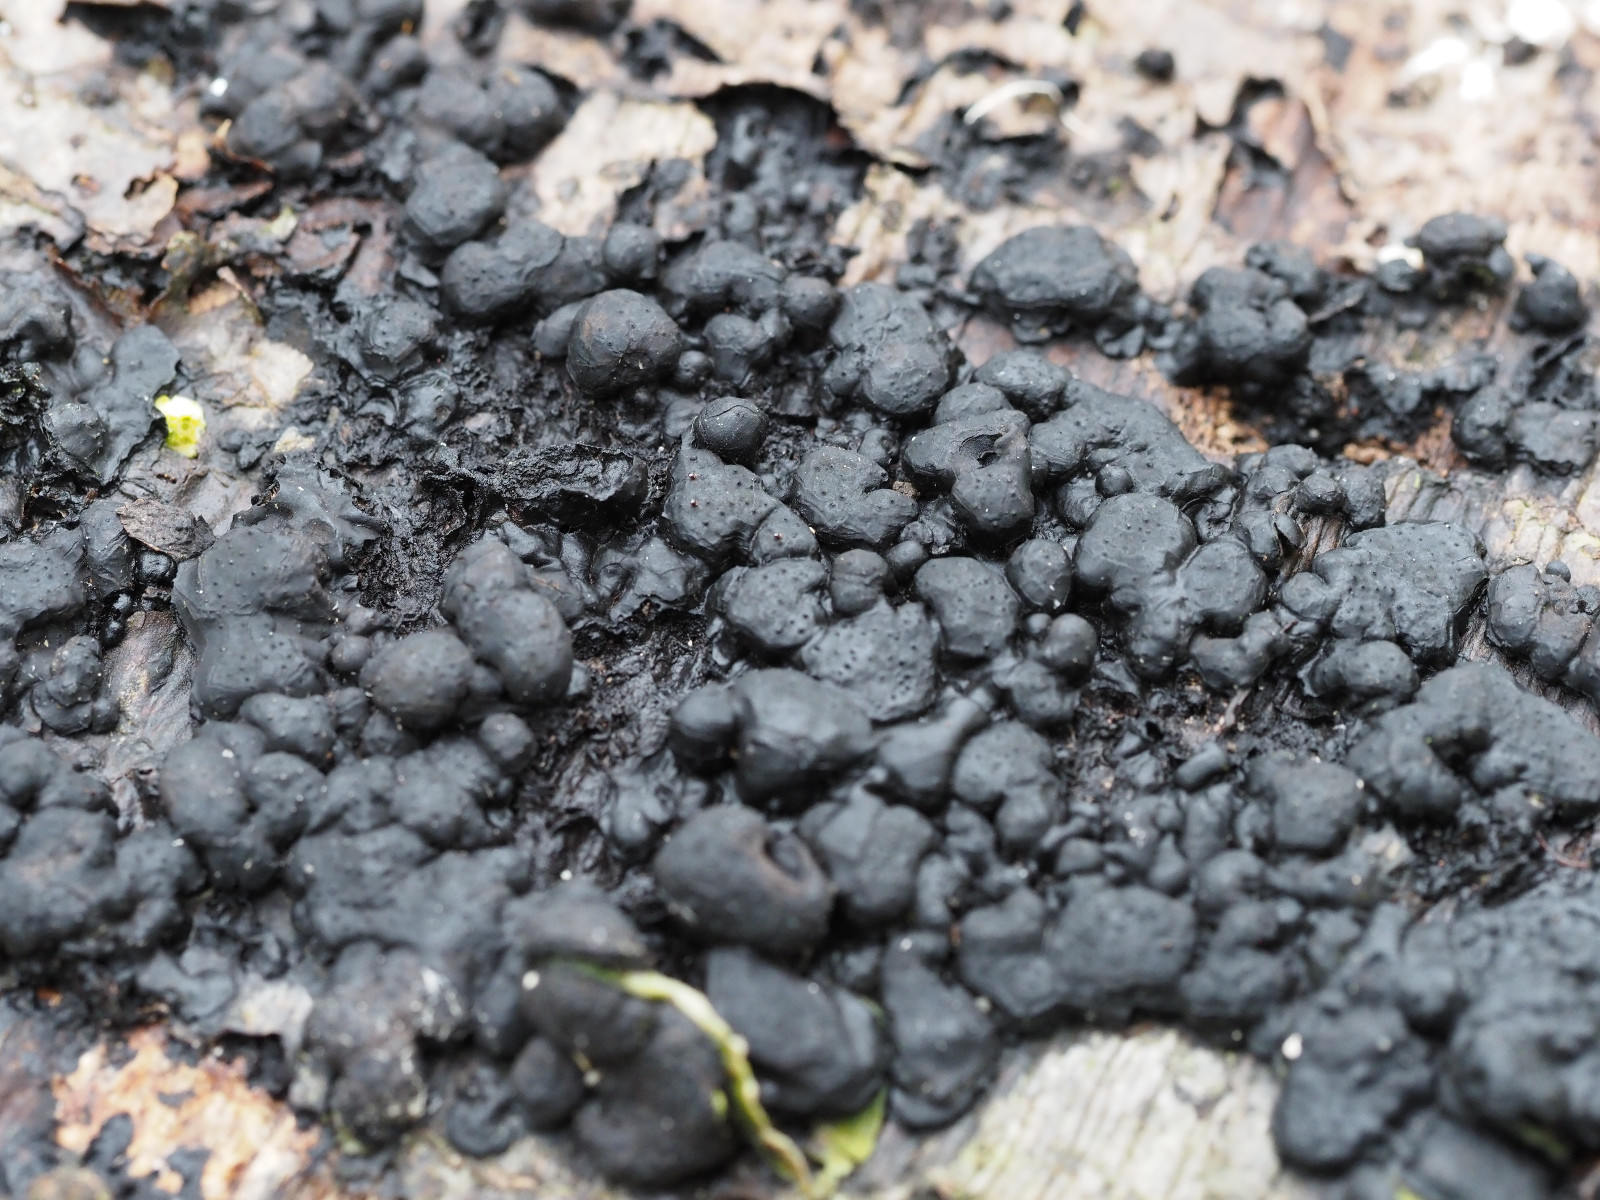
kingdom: Fungi
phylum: Ascomycota
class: Sordariomycetes
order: Xylariales
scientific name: Xylariales
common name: stødsvampordenen
